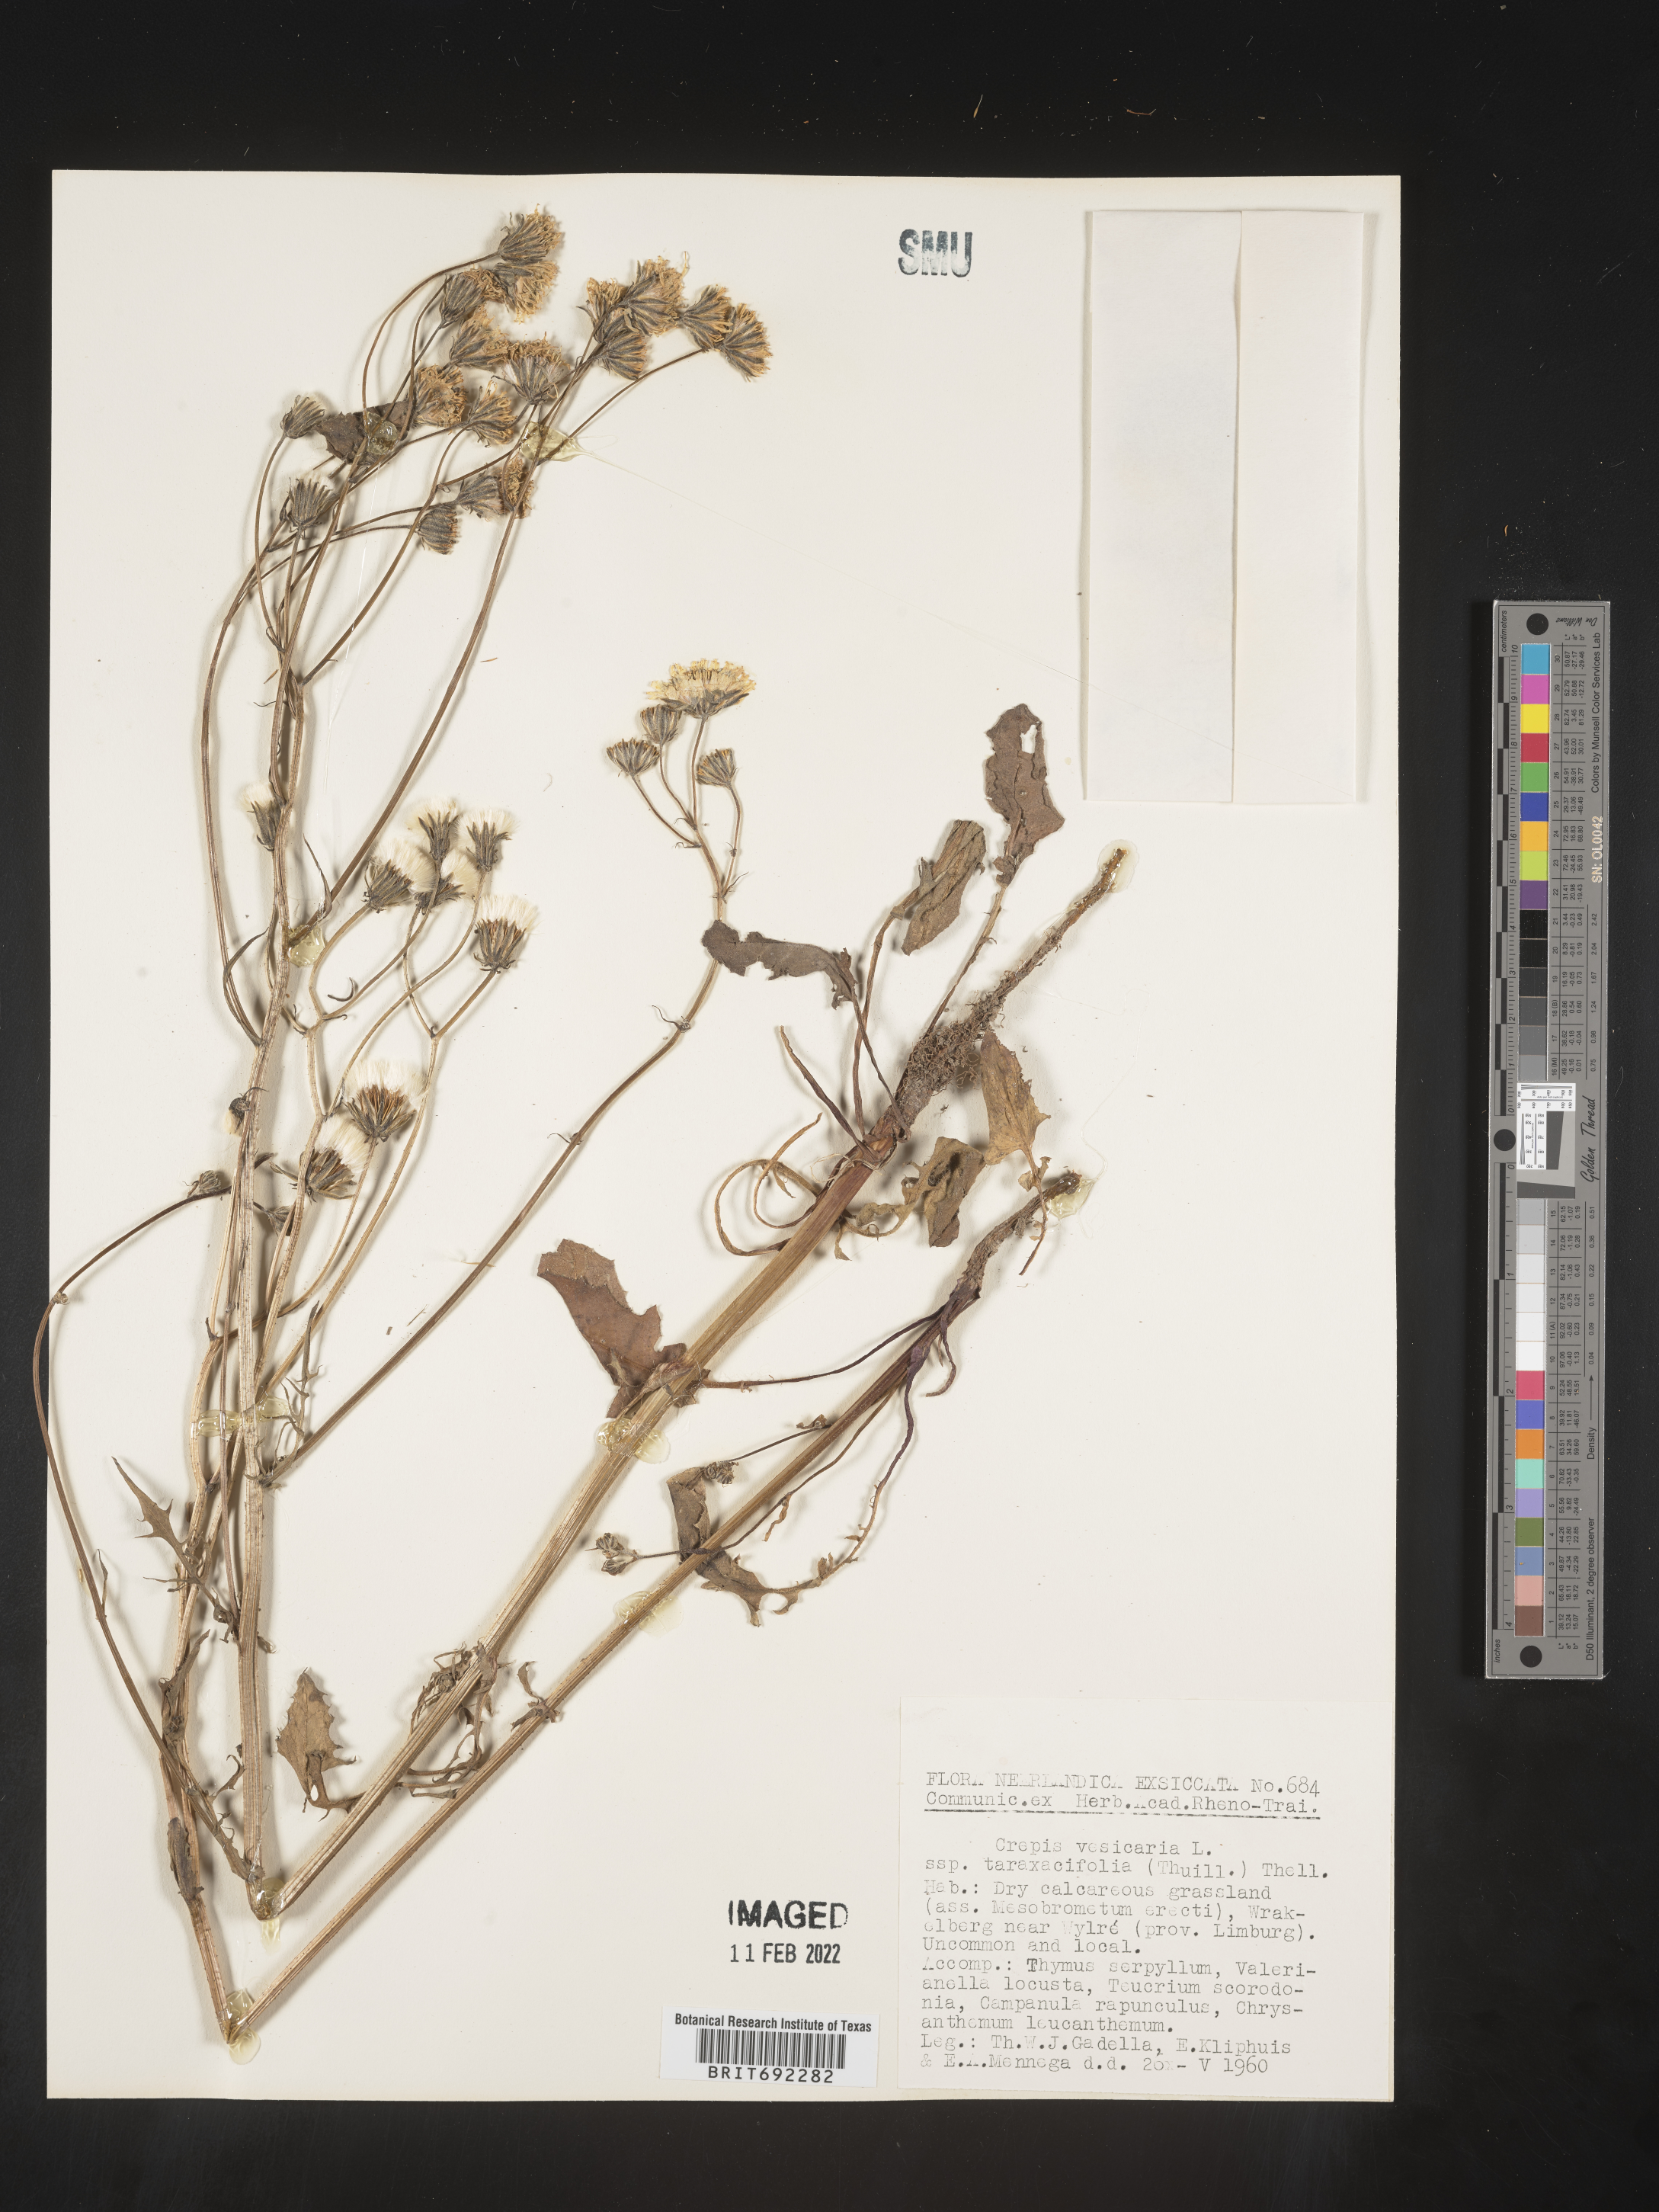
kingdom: Plantae
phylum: Tracheophyta
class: Magnoliopsida
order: Asterales
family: Asteraceae
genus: Crepis
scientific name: Crepis
